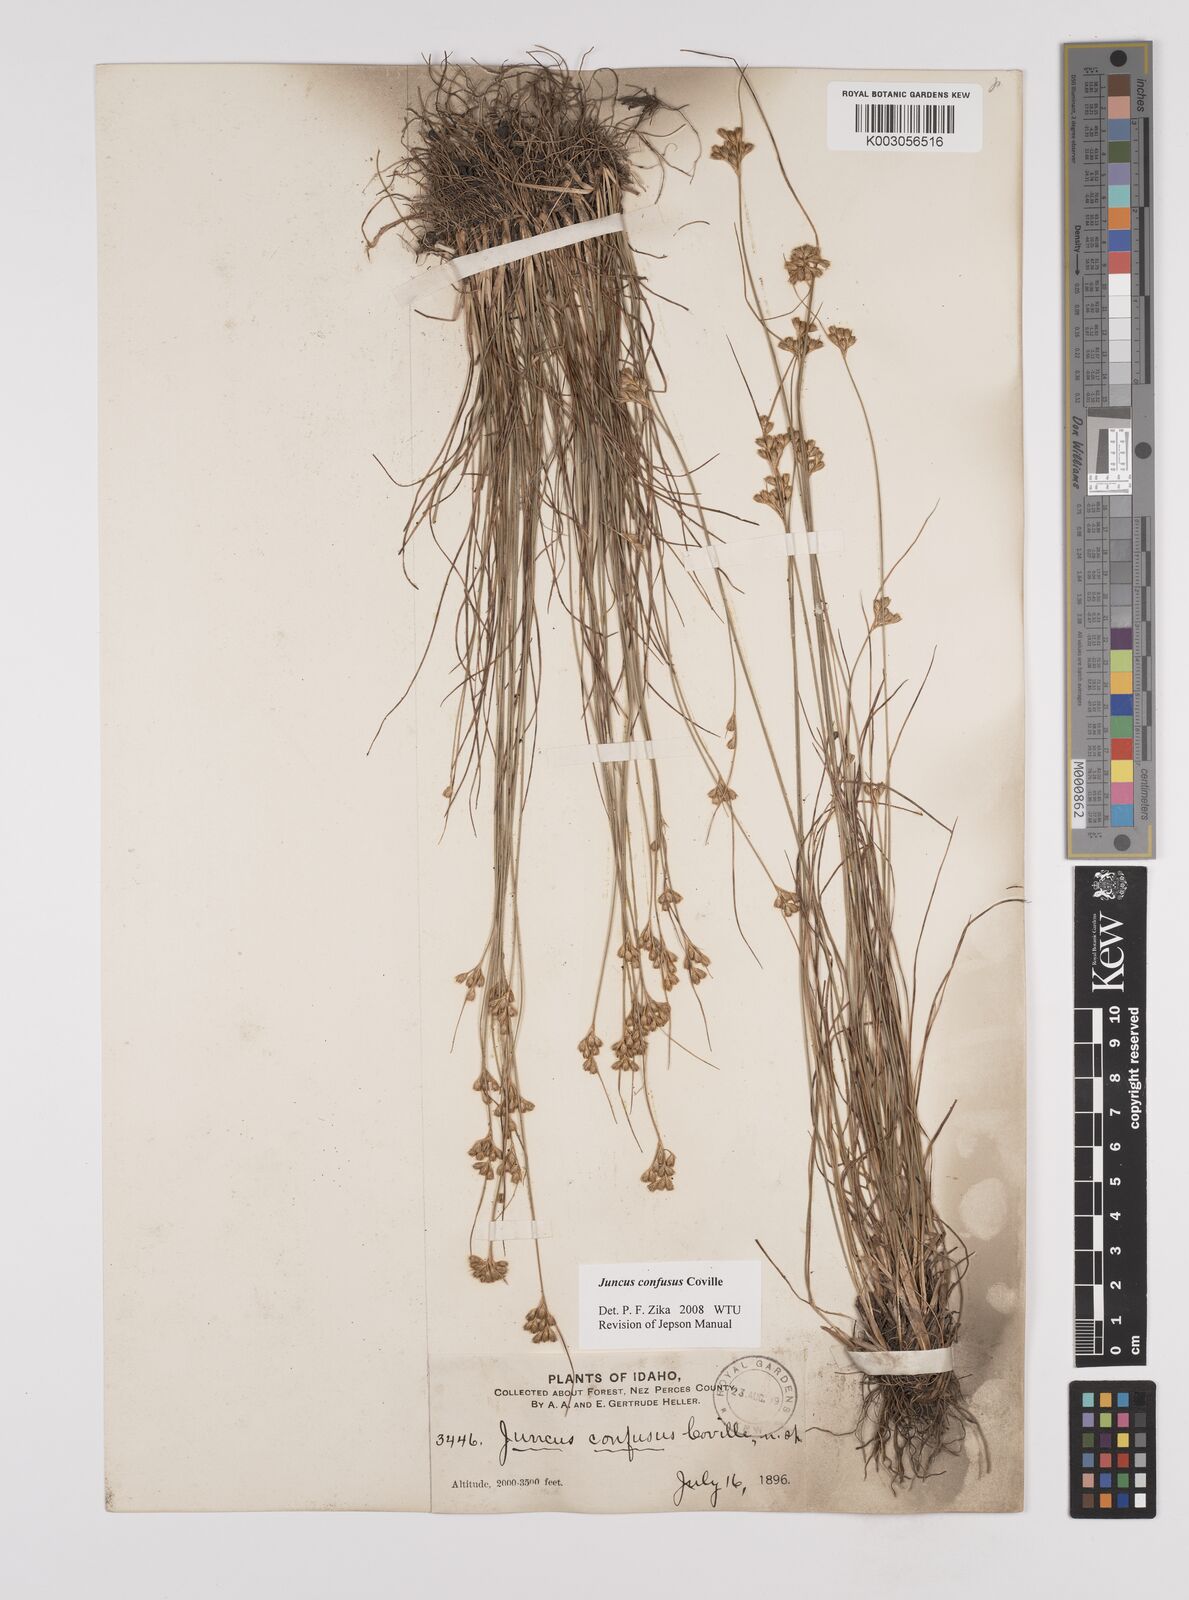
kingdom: Plantae
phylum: Tracheophyta
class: Liliopsida
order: Poales
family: Juncaceae
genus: Juncus
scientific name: Juncus confusus
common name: Colorado rush
